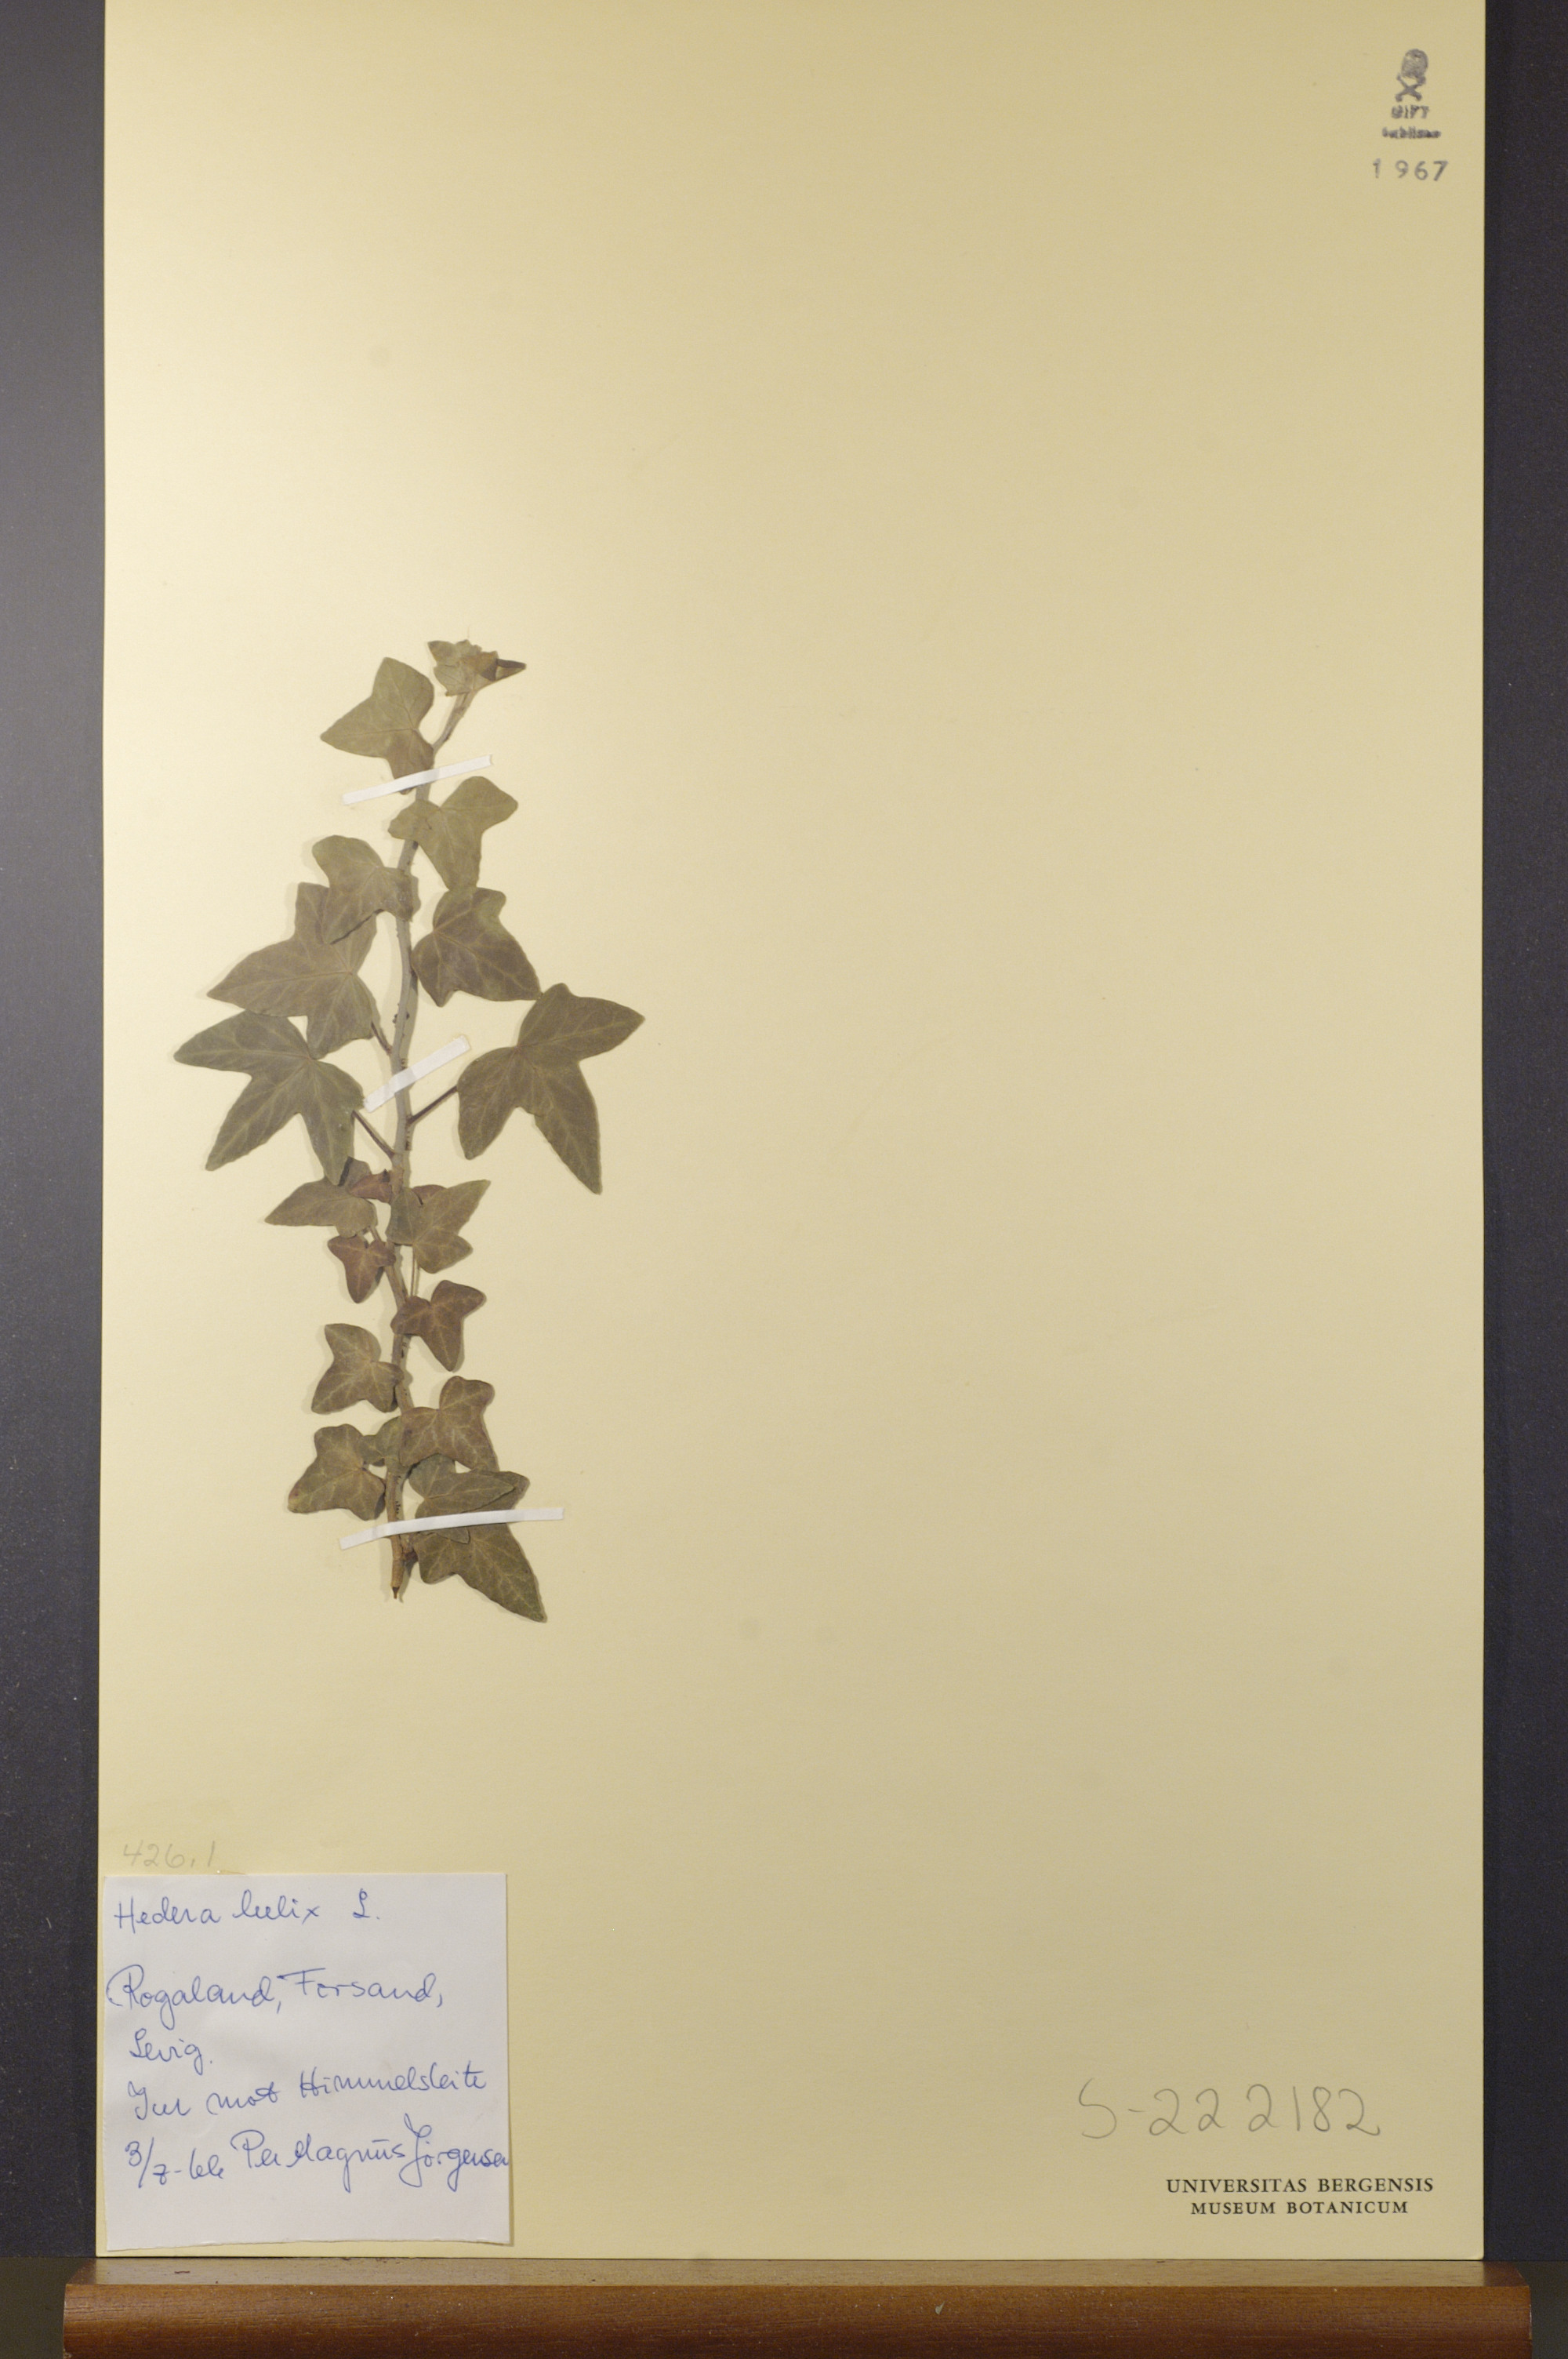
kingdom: Plantae
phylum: Tracheophyta
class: Magnoliopsida
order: Apiales
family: Araliaceae
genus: Hedera
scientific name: Hedera helix
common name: Ivy
